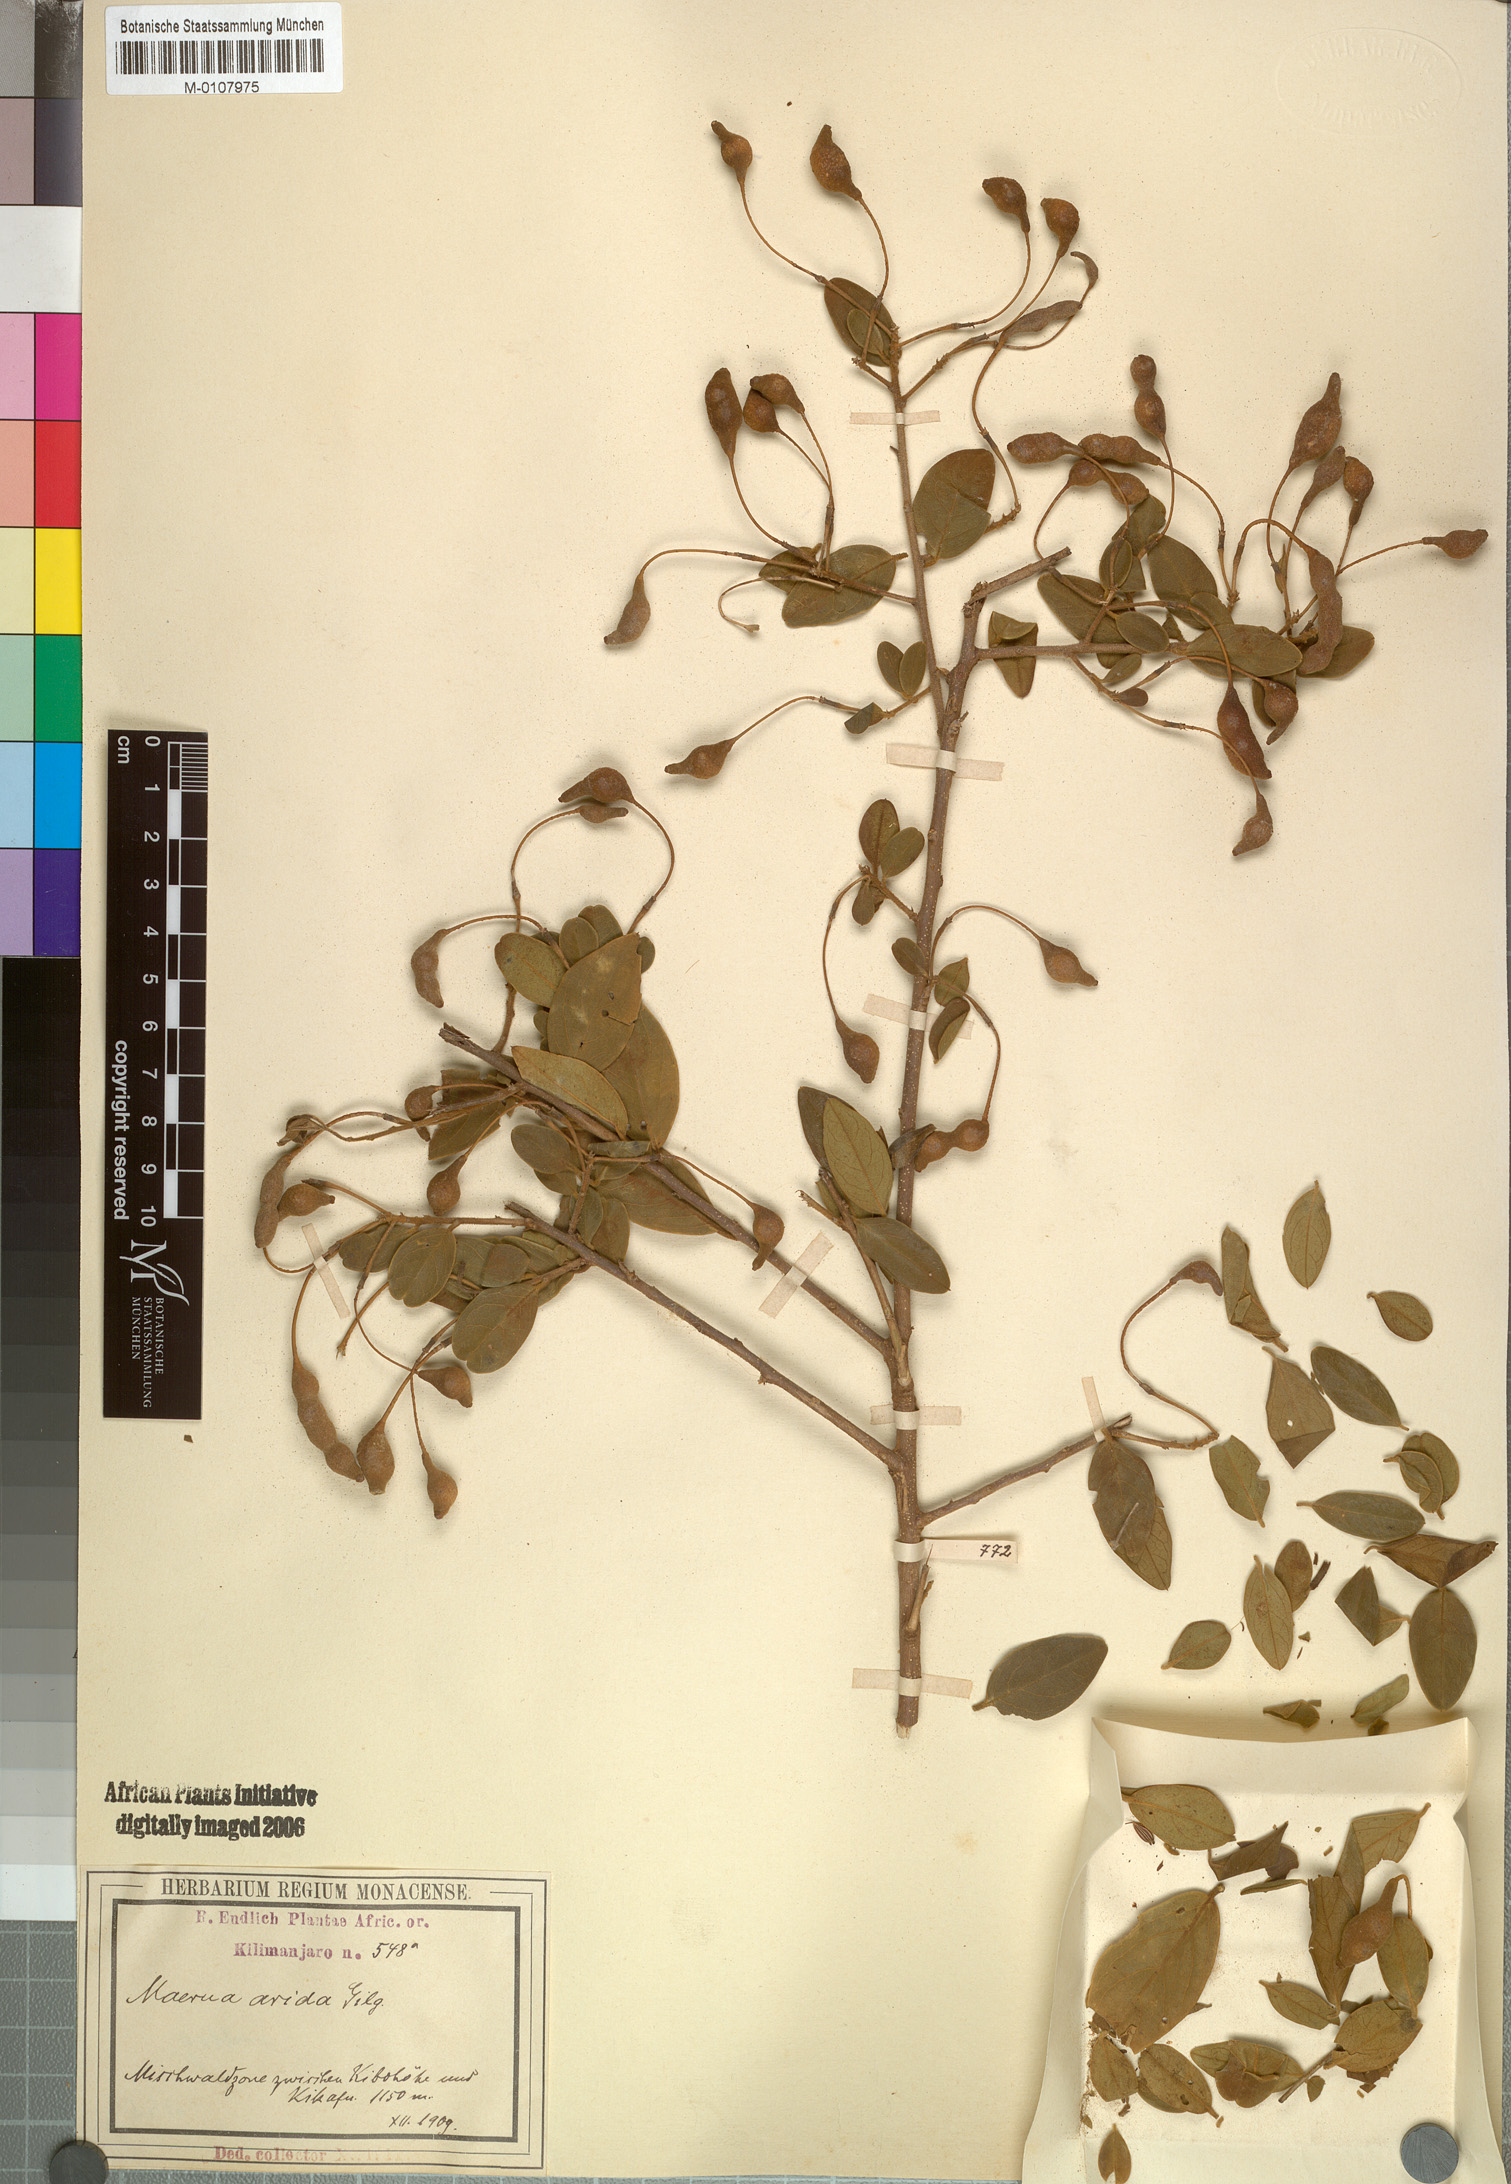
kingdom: Plantae
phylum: Tracheophyta
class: Magnoliopsida
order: Brassicales
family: Capparaceae
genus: Maerua
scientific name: Maerua
